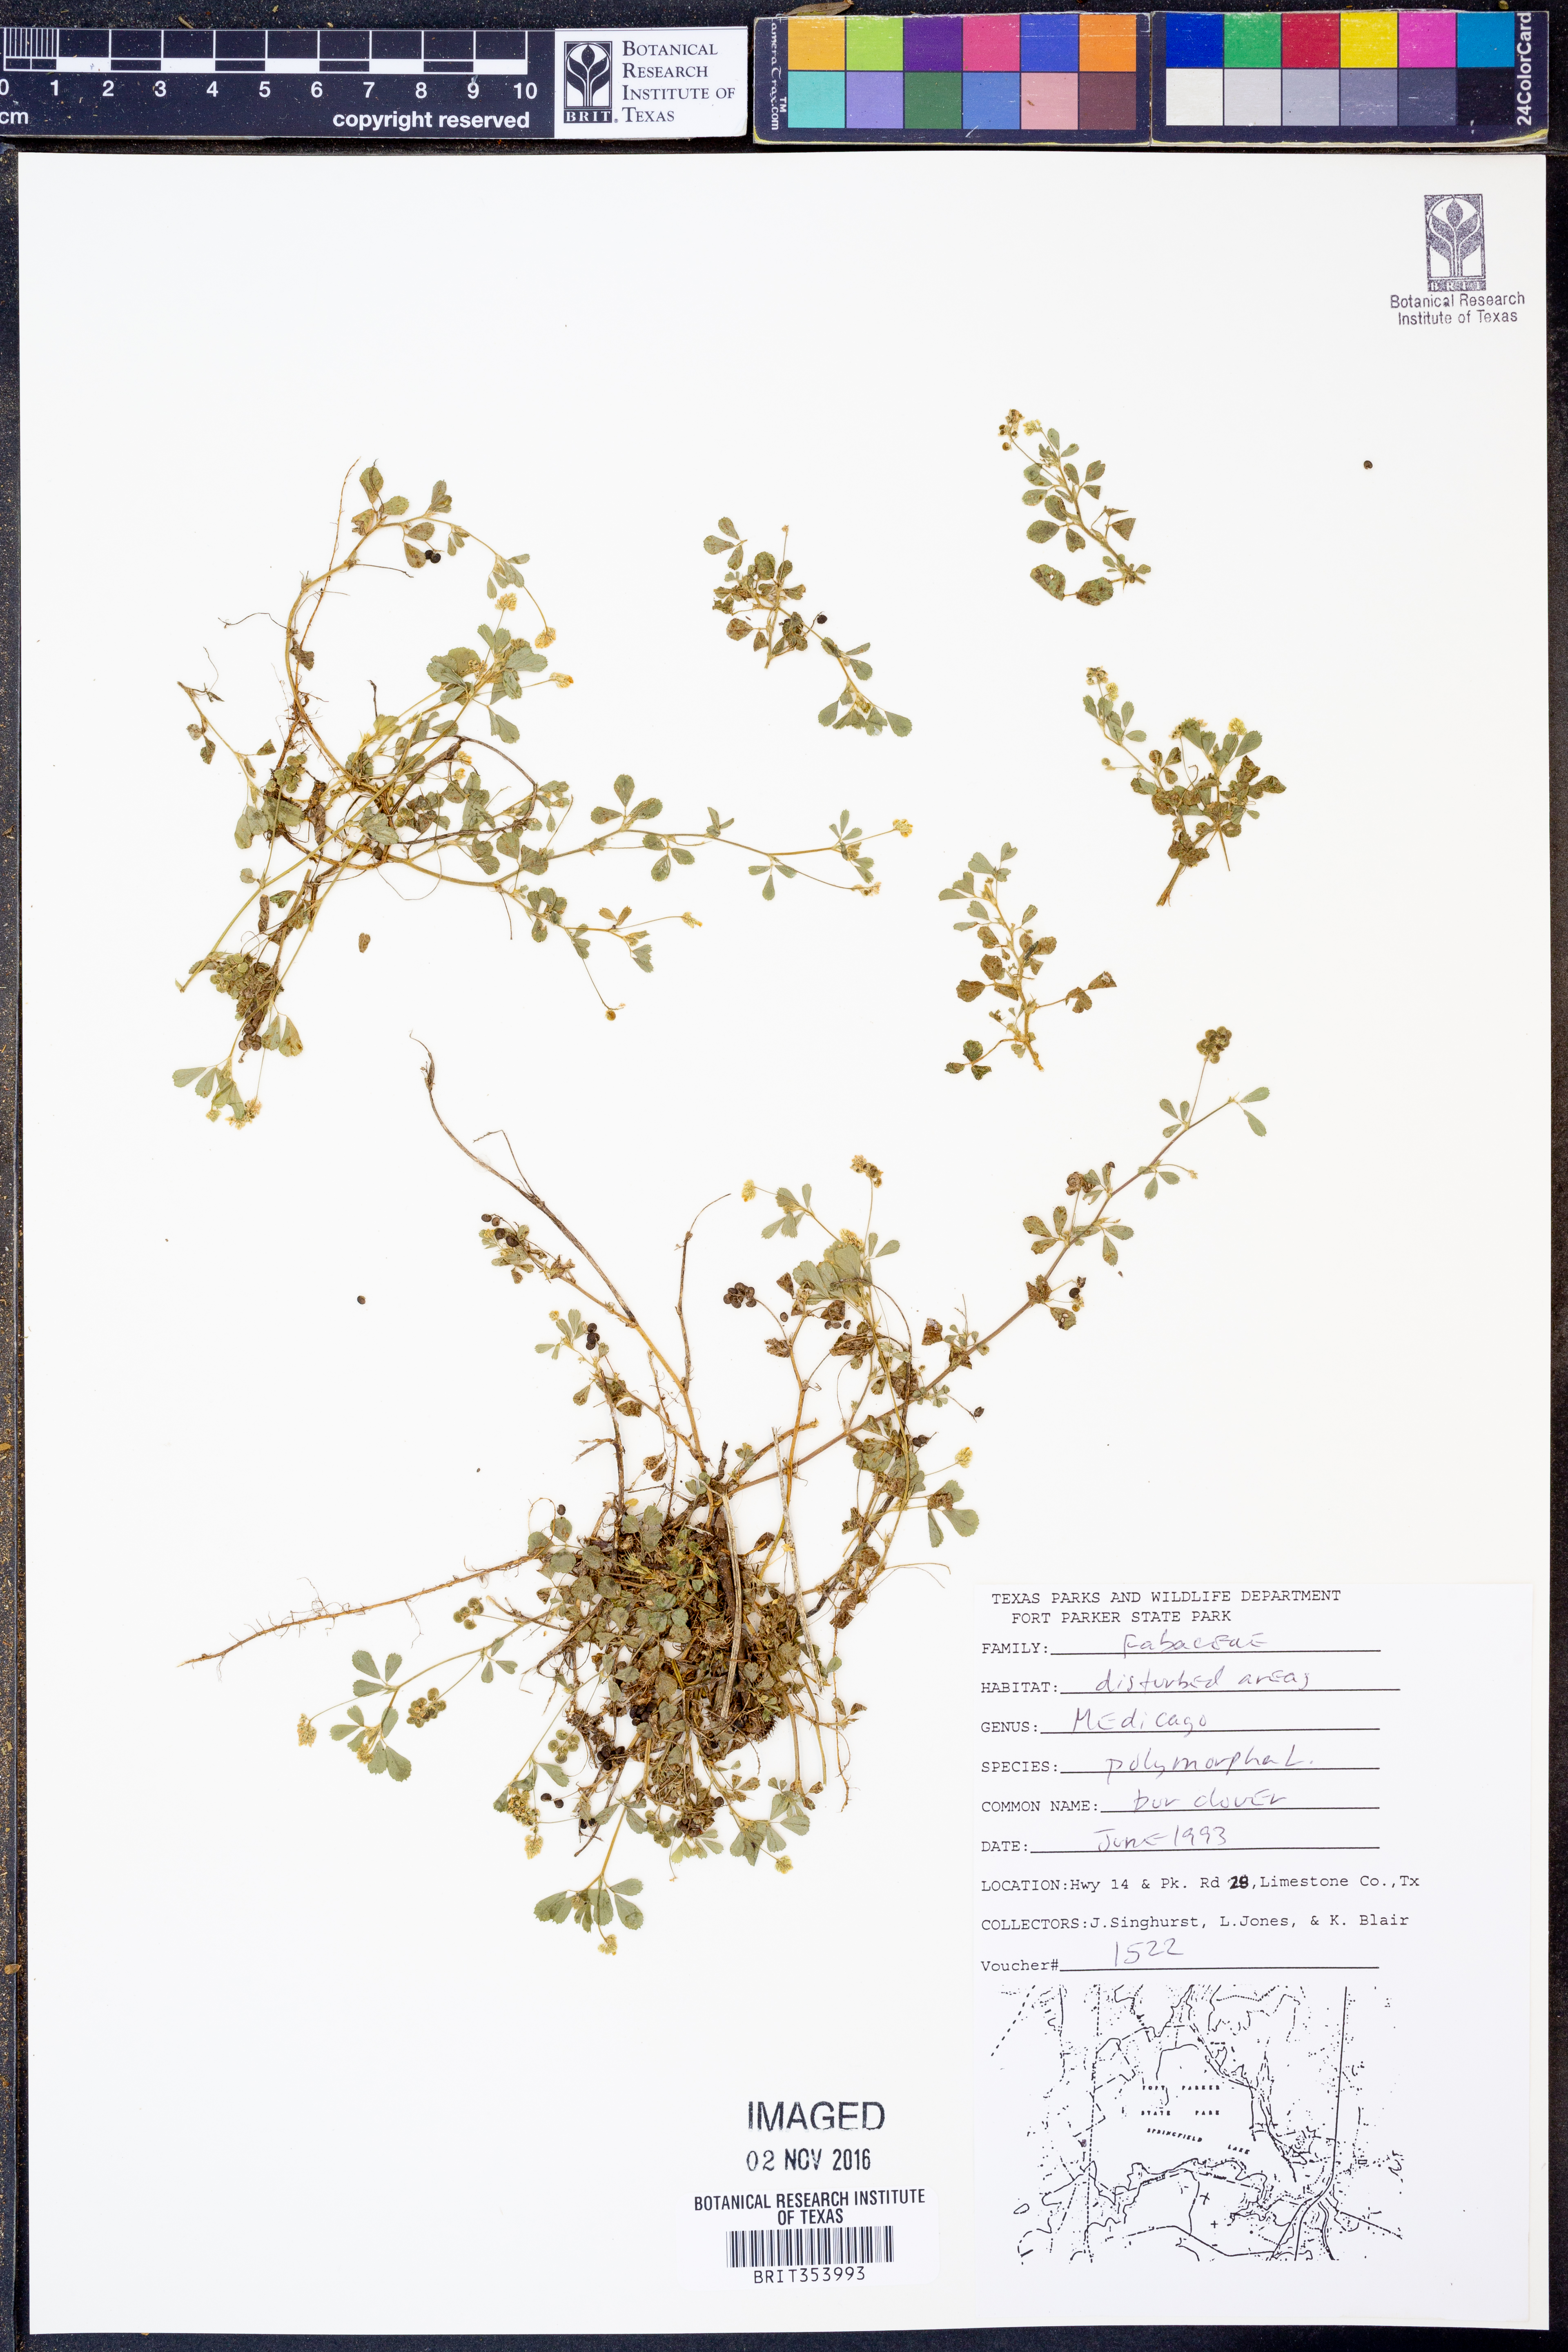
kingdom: Plantae
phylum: Tracheophyta
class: Magnoliopsida
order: Fabales
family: Fabaceae
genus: Medicago
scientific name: Medicago polymorpha
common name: Burclover
